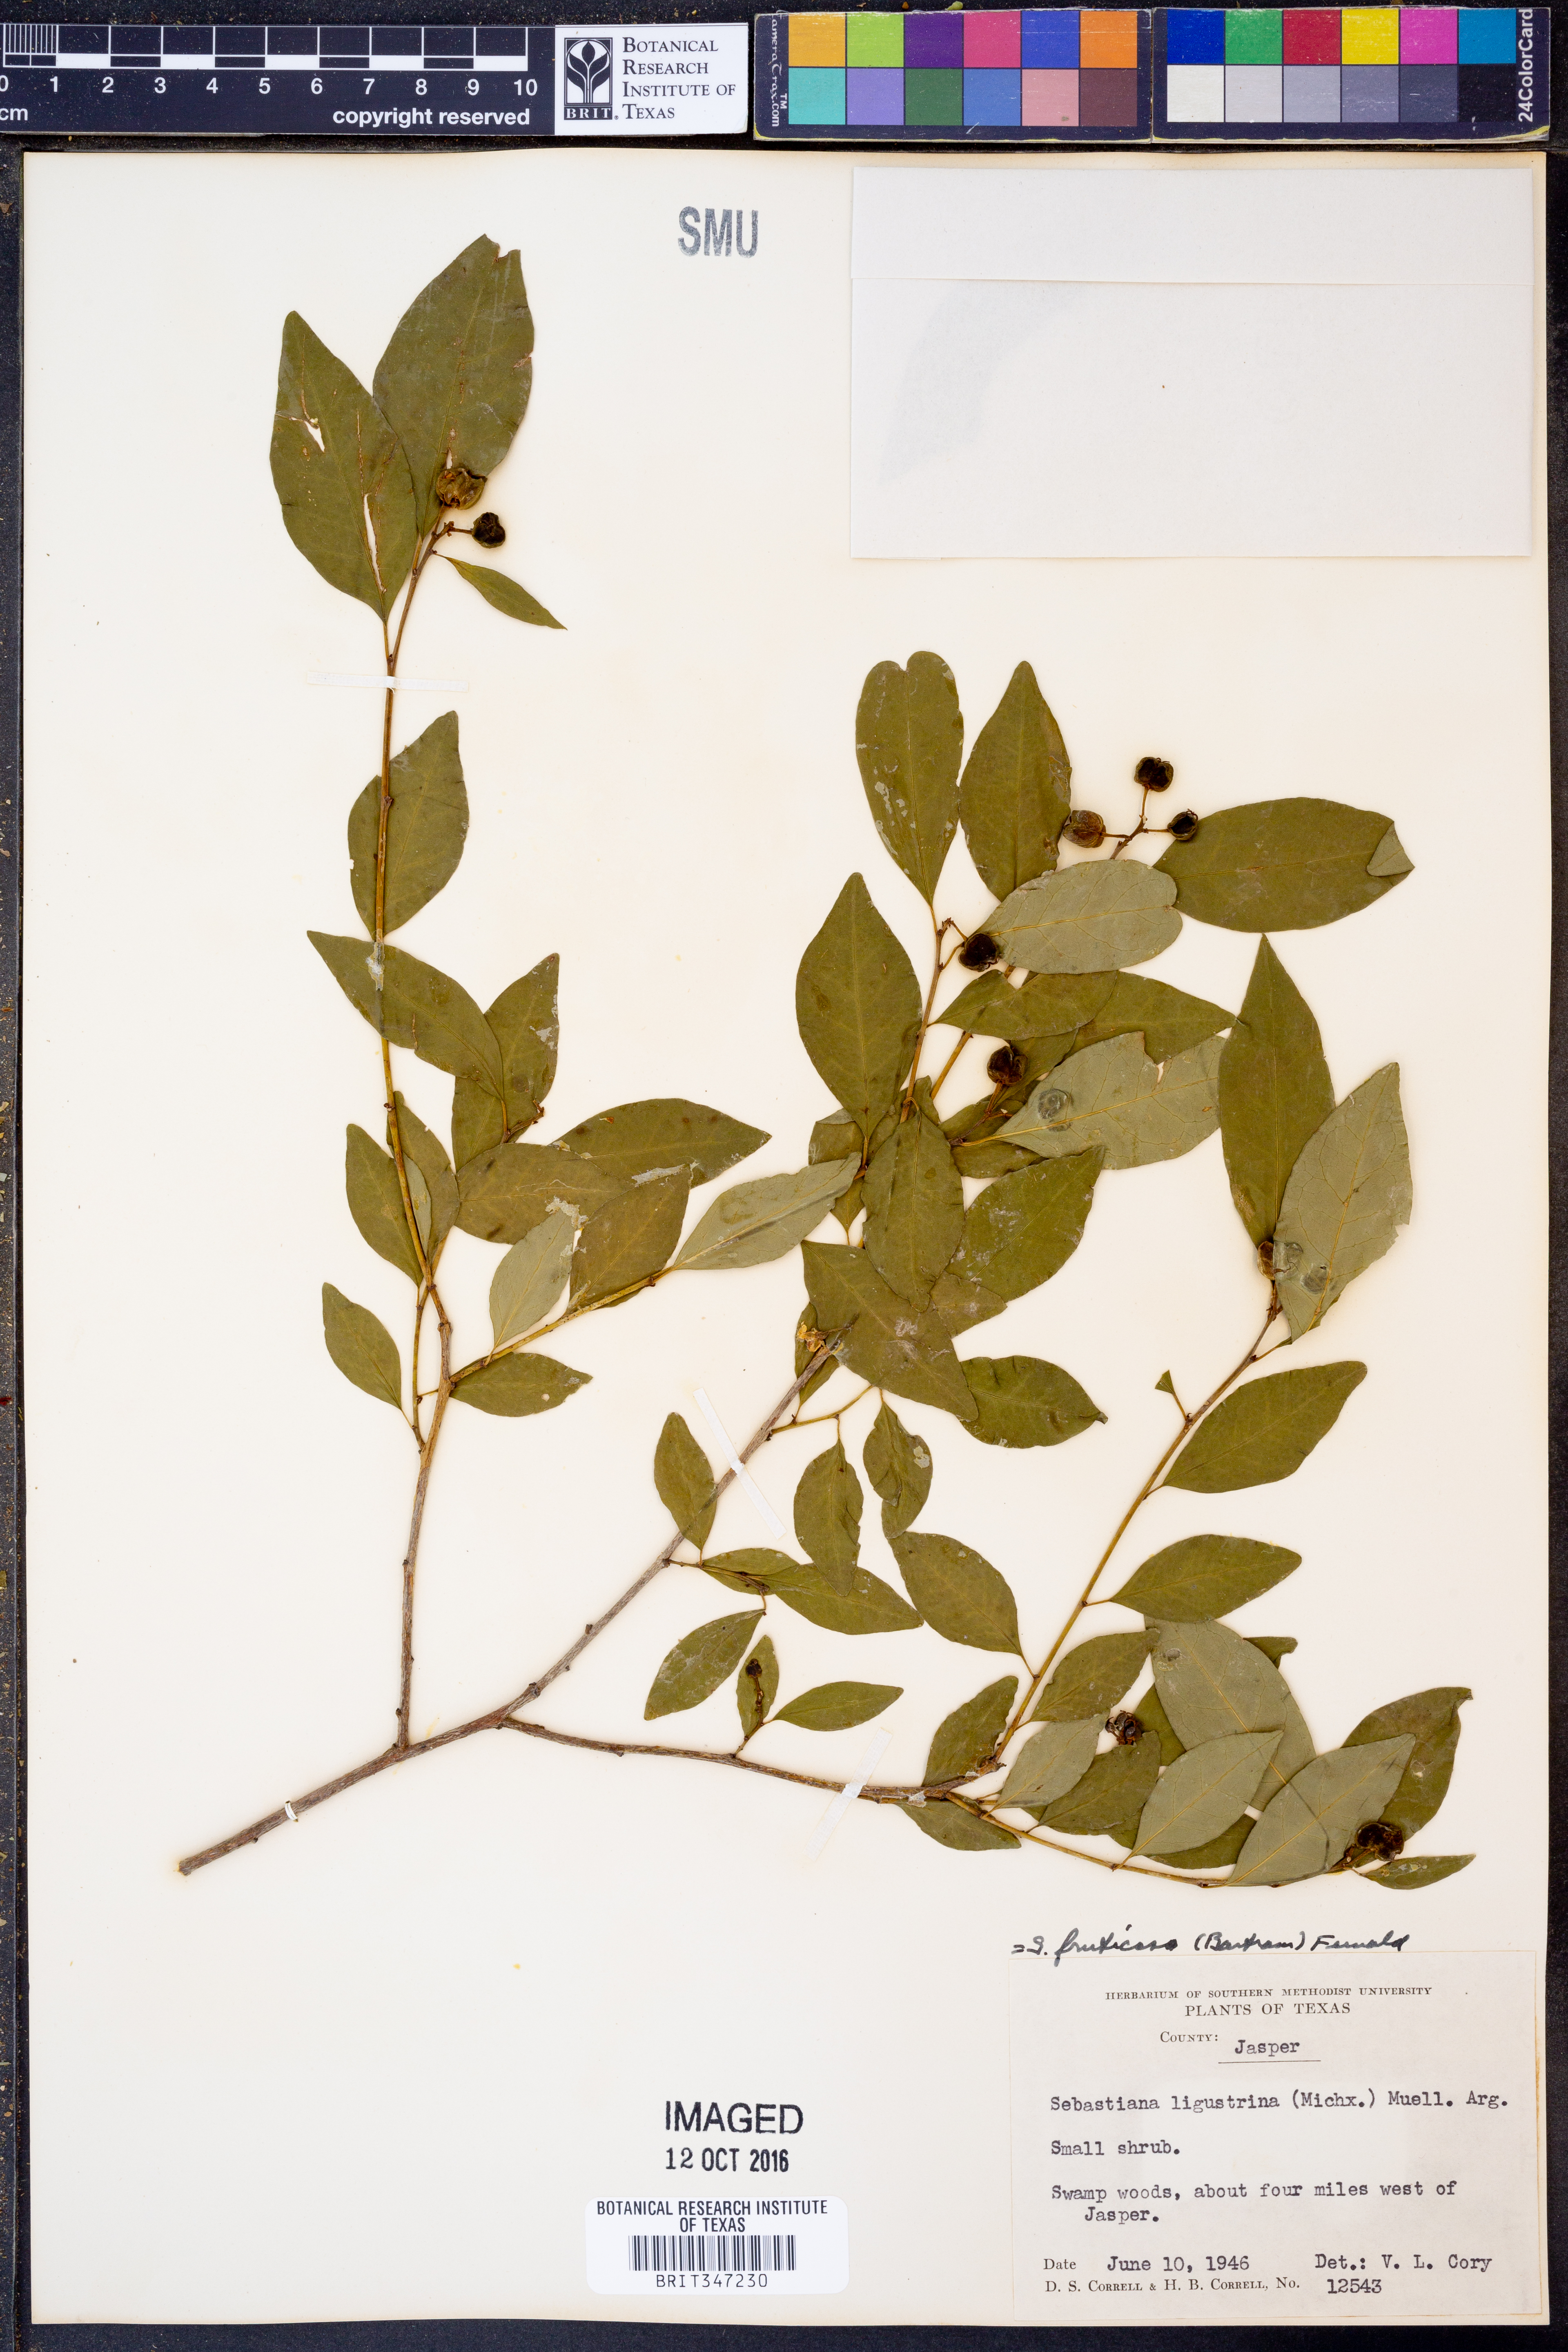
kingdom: Plantae
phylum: Tracheophyta
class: Magnoliopsida
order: Malpighiales
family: Euphorbiaceae
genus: Ditrysinia
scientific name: Ditrysinia fruticosa
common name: Gulf sebastian-bush
